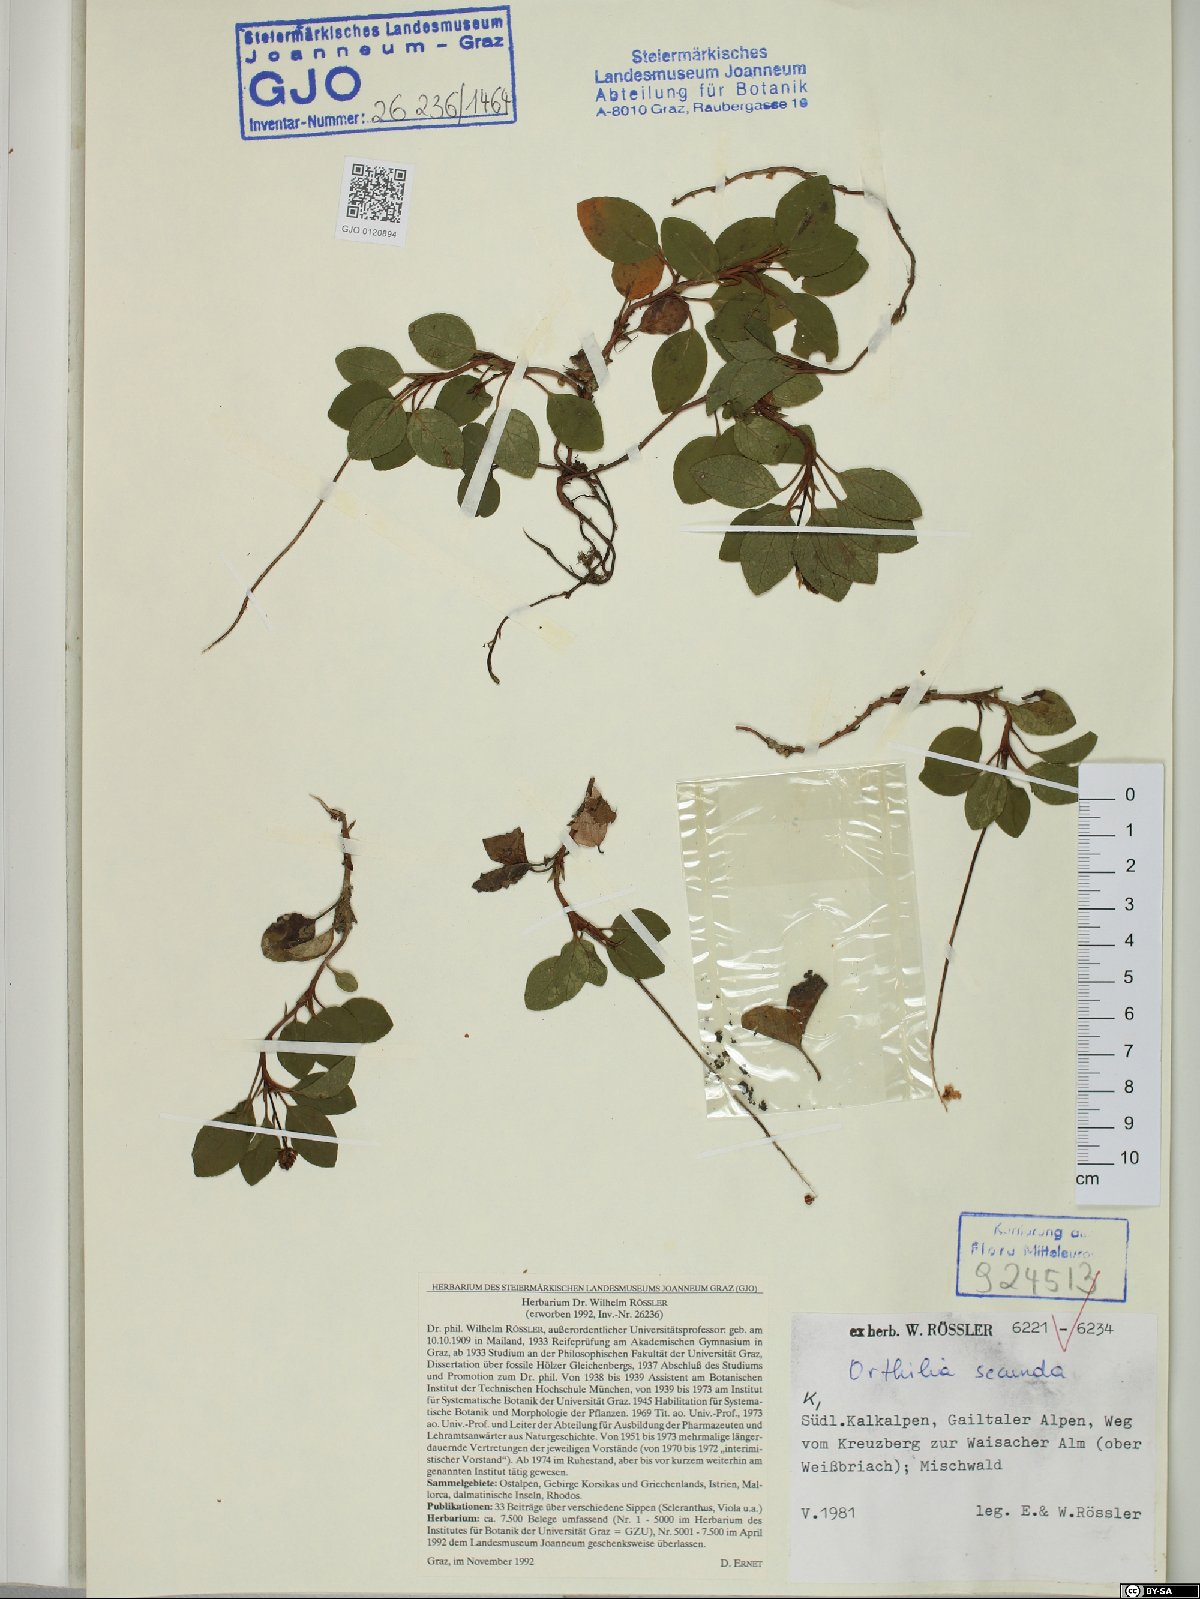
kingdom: Plantae
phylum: Tracheophyta
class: Magnoliopsida
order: Ericales
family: Ericaceae
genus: Orthilia
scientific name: Orthilia secunda
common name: One-sided orthilia
